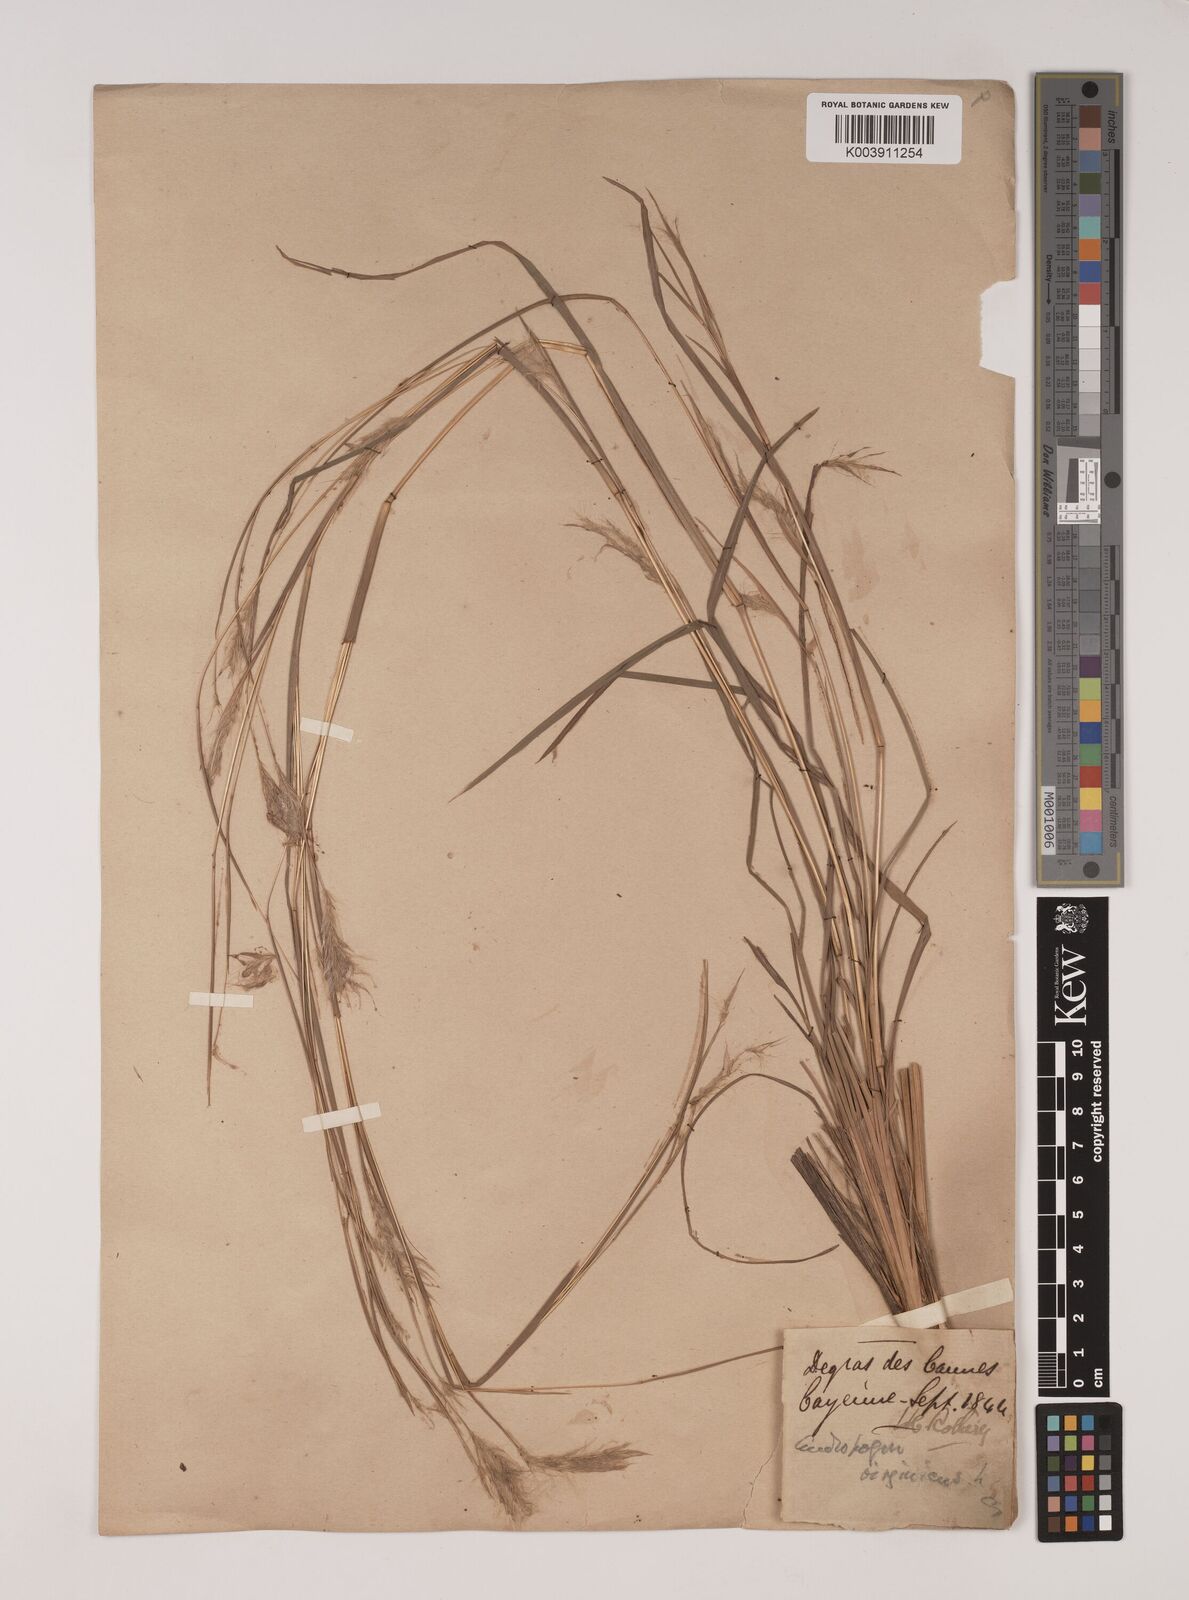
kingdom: Plantae
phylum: Tracheophyta
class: Liliopsida
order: Poales
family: Poaceae
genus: Andropogon
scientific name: Andropogon leucostachyus
